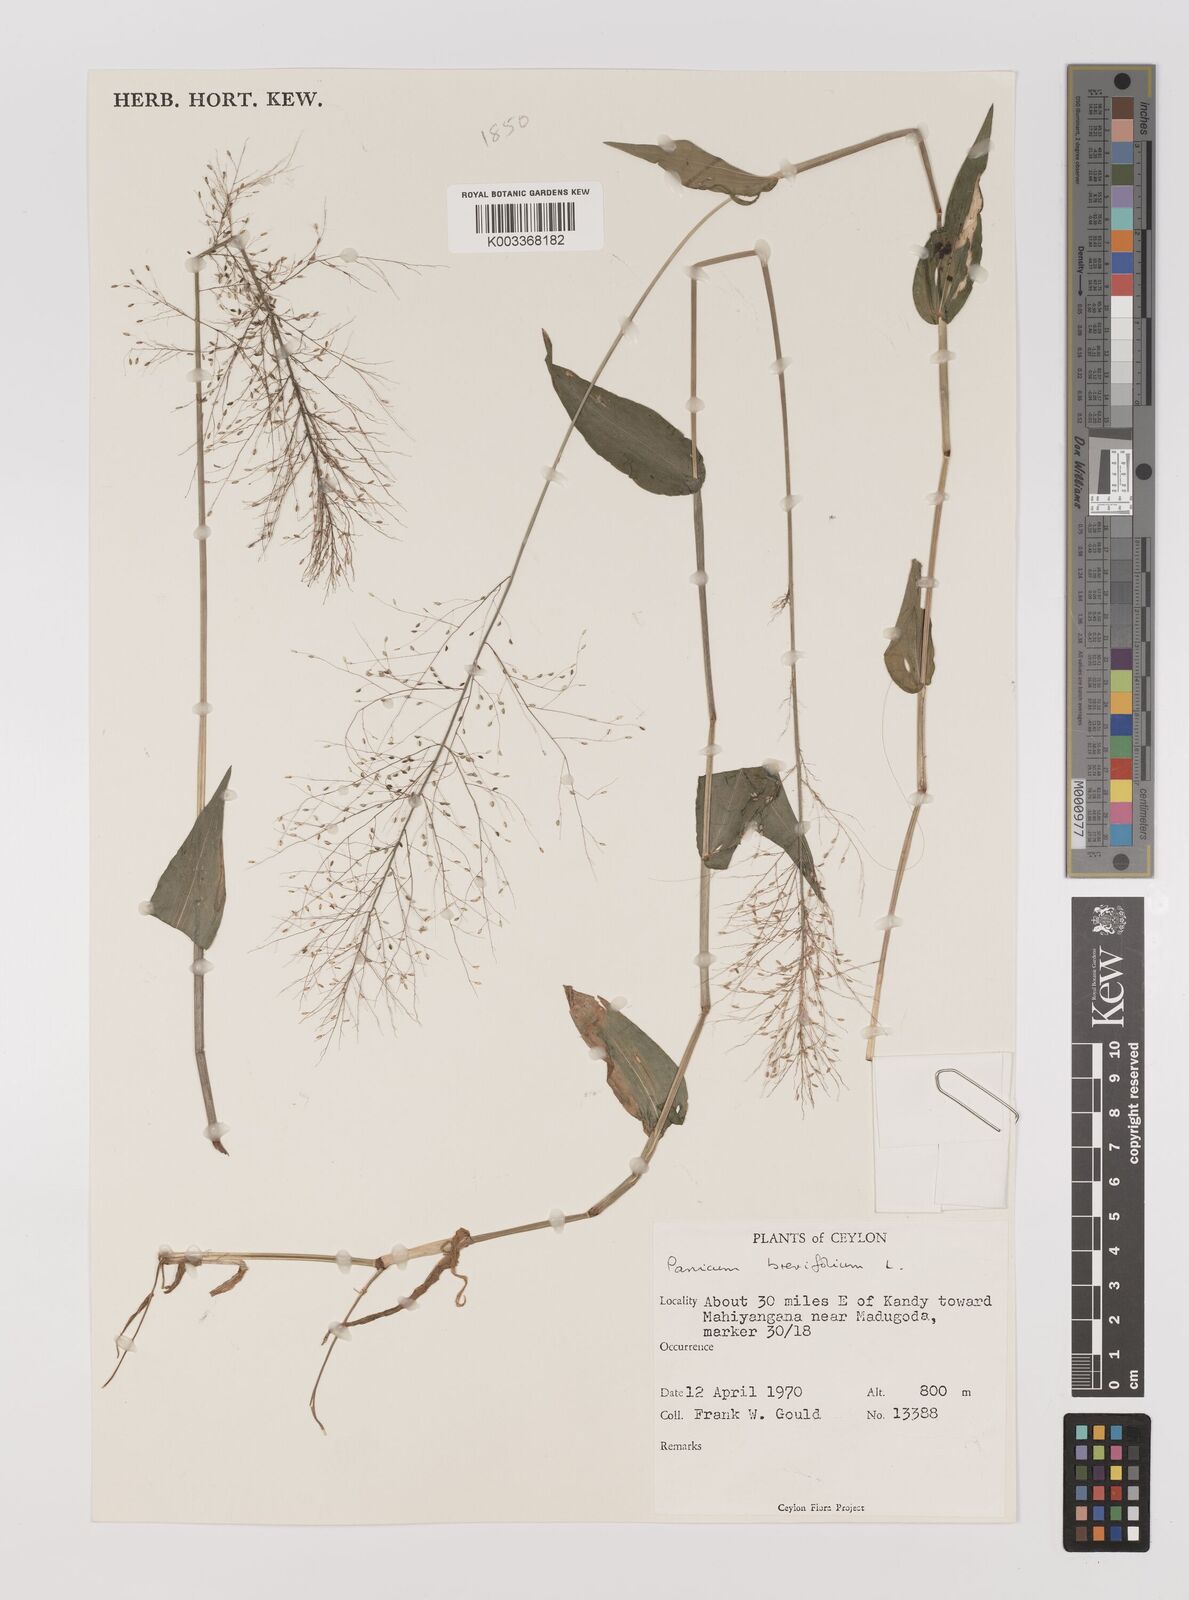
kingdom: Plantae
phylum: Tracheophyta
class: Liliopsida
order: Poales
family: Poaceae
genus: Panicum
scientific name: Panicum brevifolium
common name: Shortleaf panic grass
